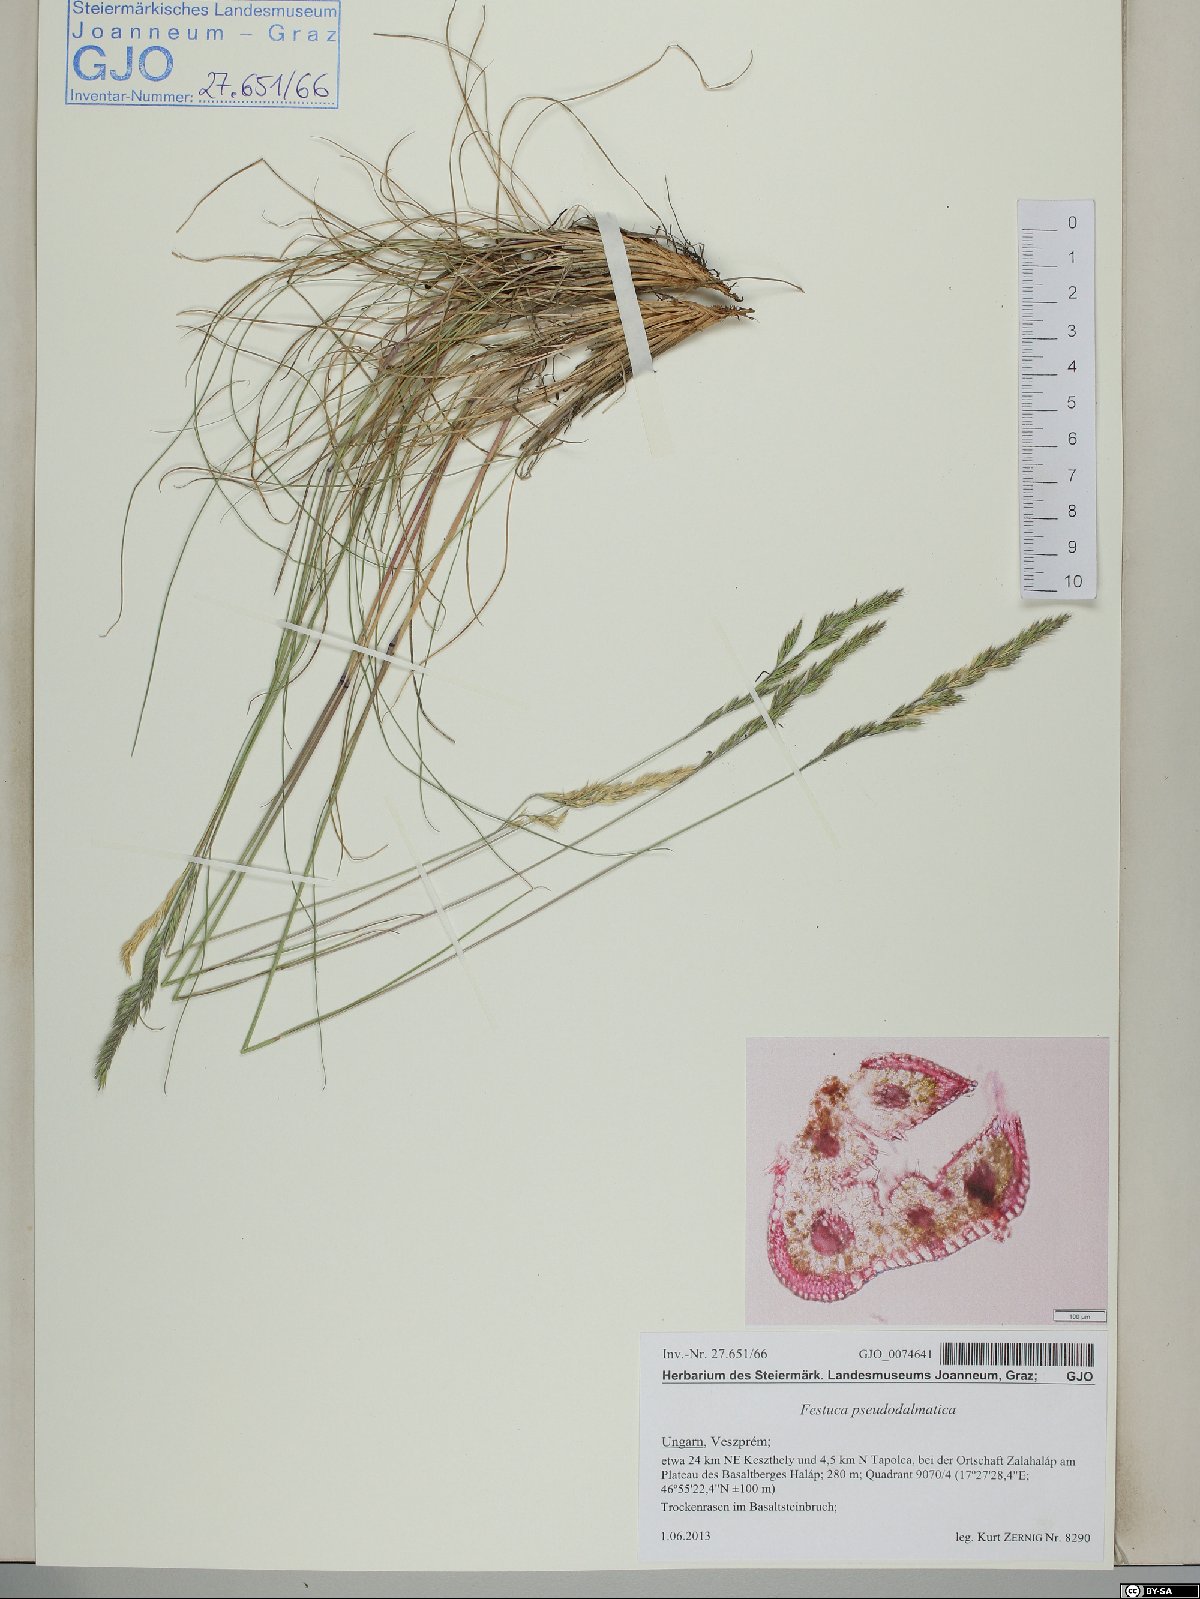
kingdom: Plantae
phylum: Tracheophyta
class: Liliopsida
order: Poales
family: Poaceae
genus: Festuca
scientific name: Festuca pseudodalmatica
